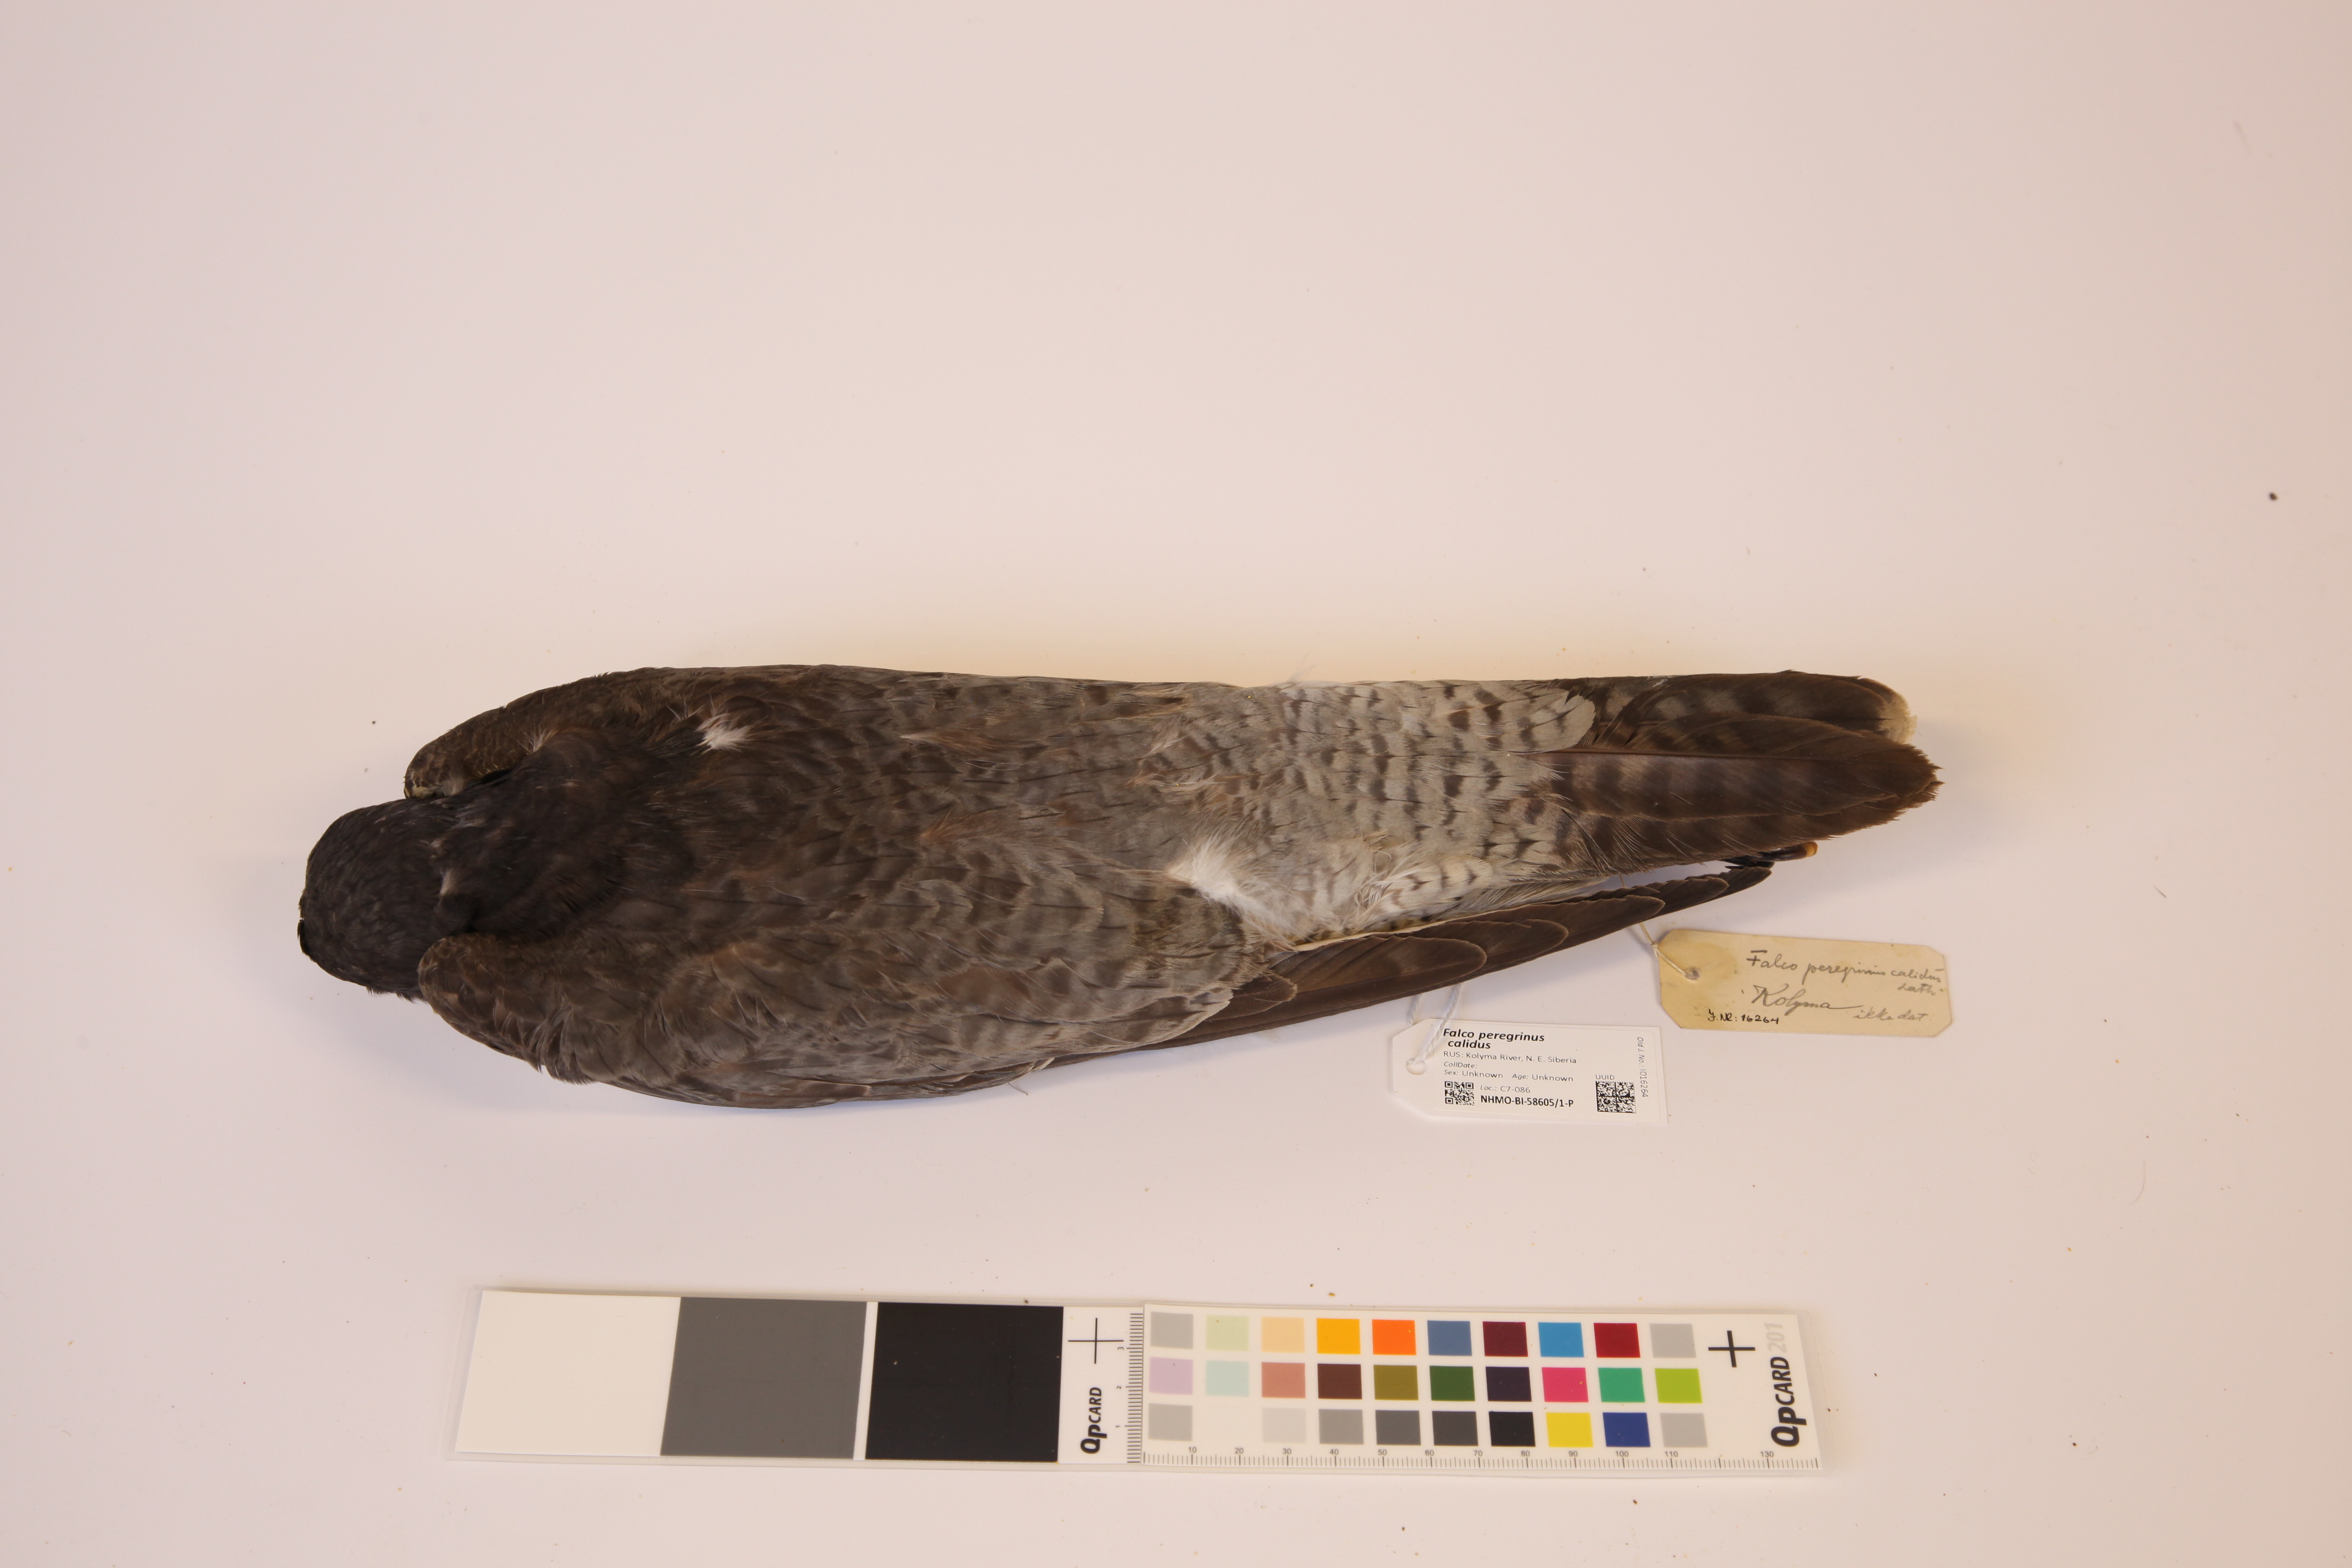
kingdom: Animalia
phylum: Chordata
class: Aves
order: Falconiformes
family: Falconidae
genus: Falco
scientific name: Falco peregrinus
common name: Peregrine falcon
